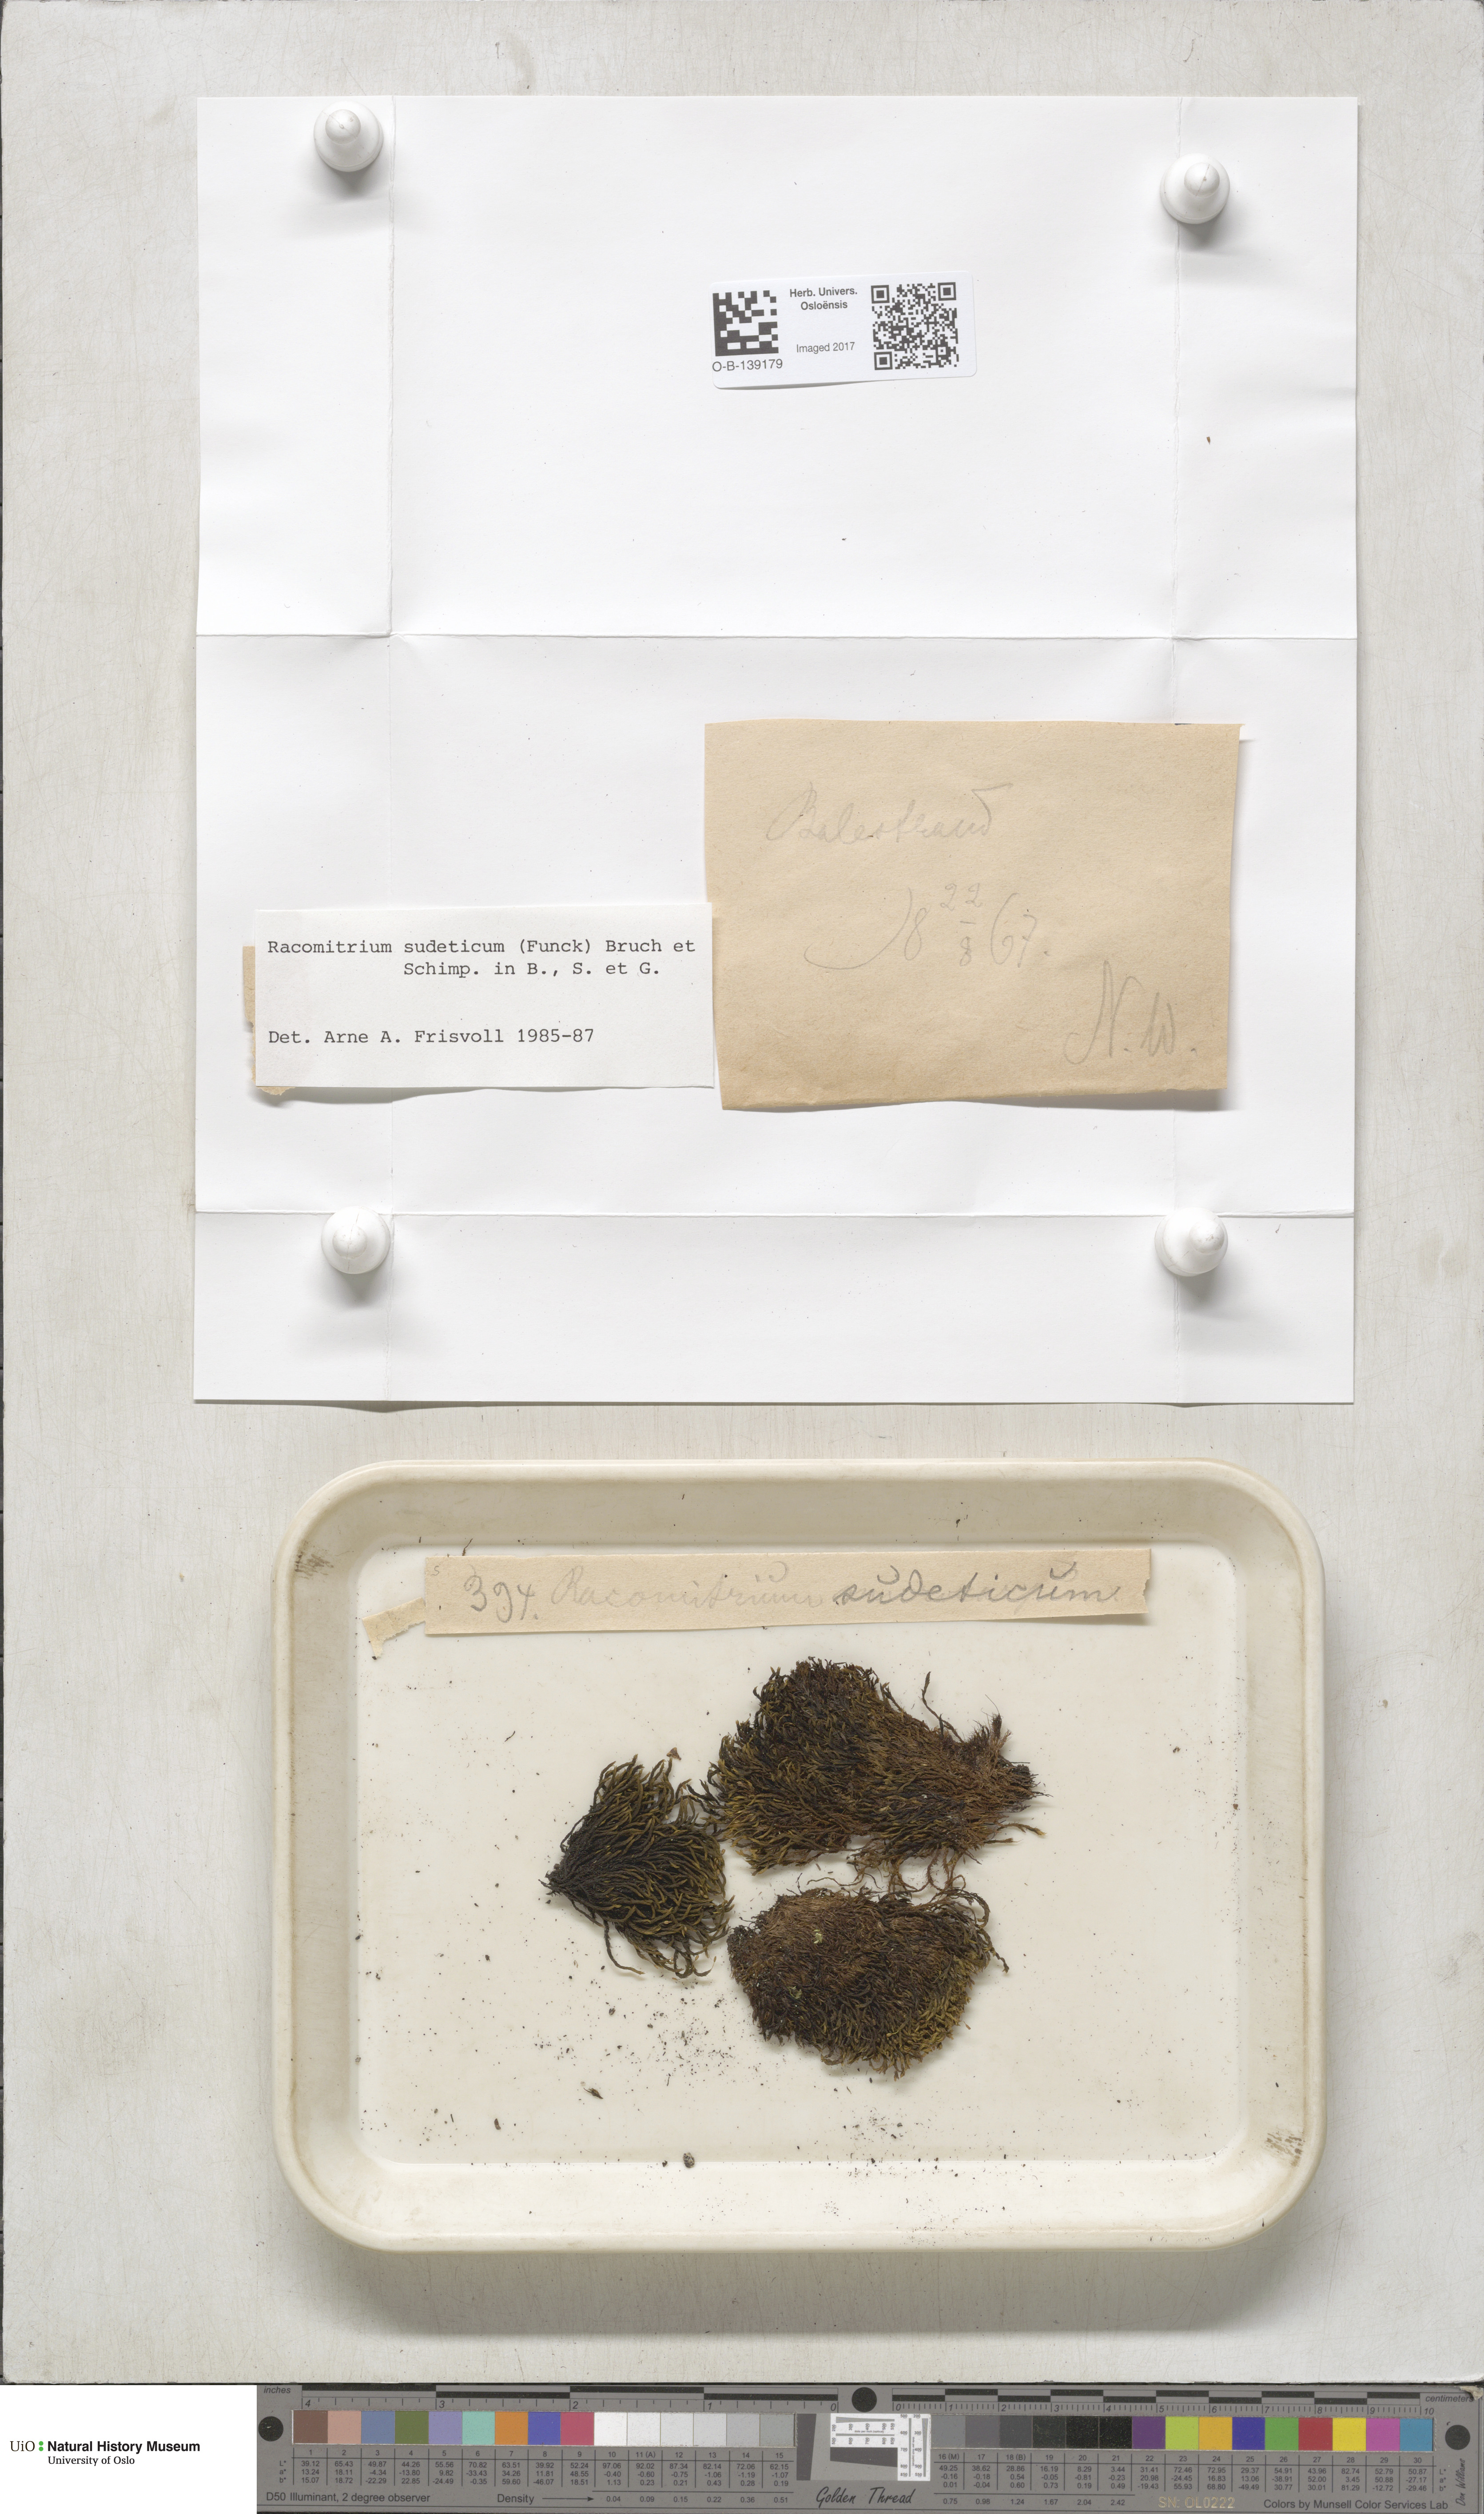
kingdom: Plantae
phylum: Bryophyta
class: Bryopsida
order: Grimmiales
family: Grimmiaceae
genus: Bucklandiella
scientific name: Bucklandiella sudetica
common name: Slender fringe-moss
